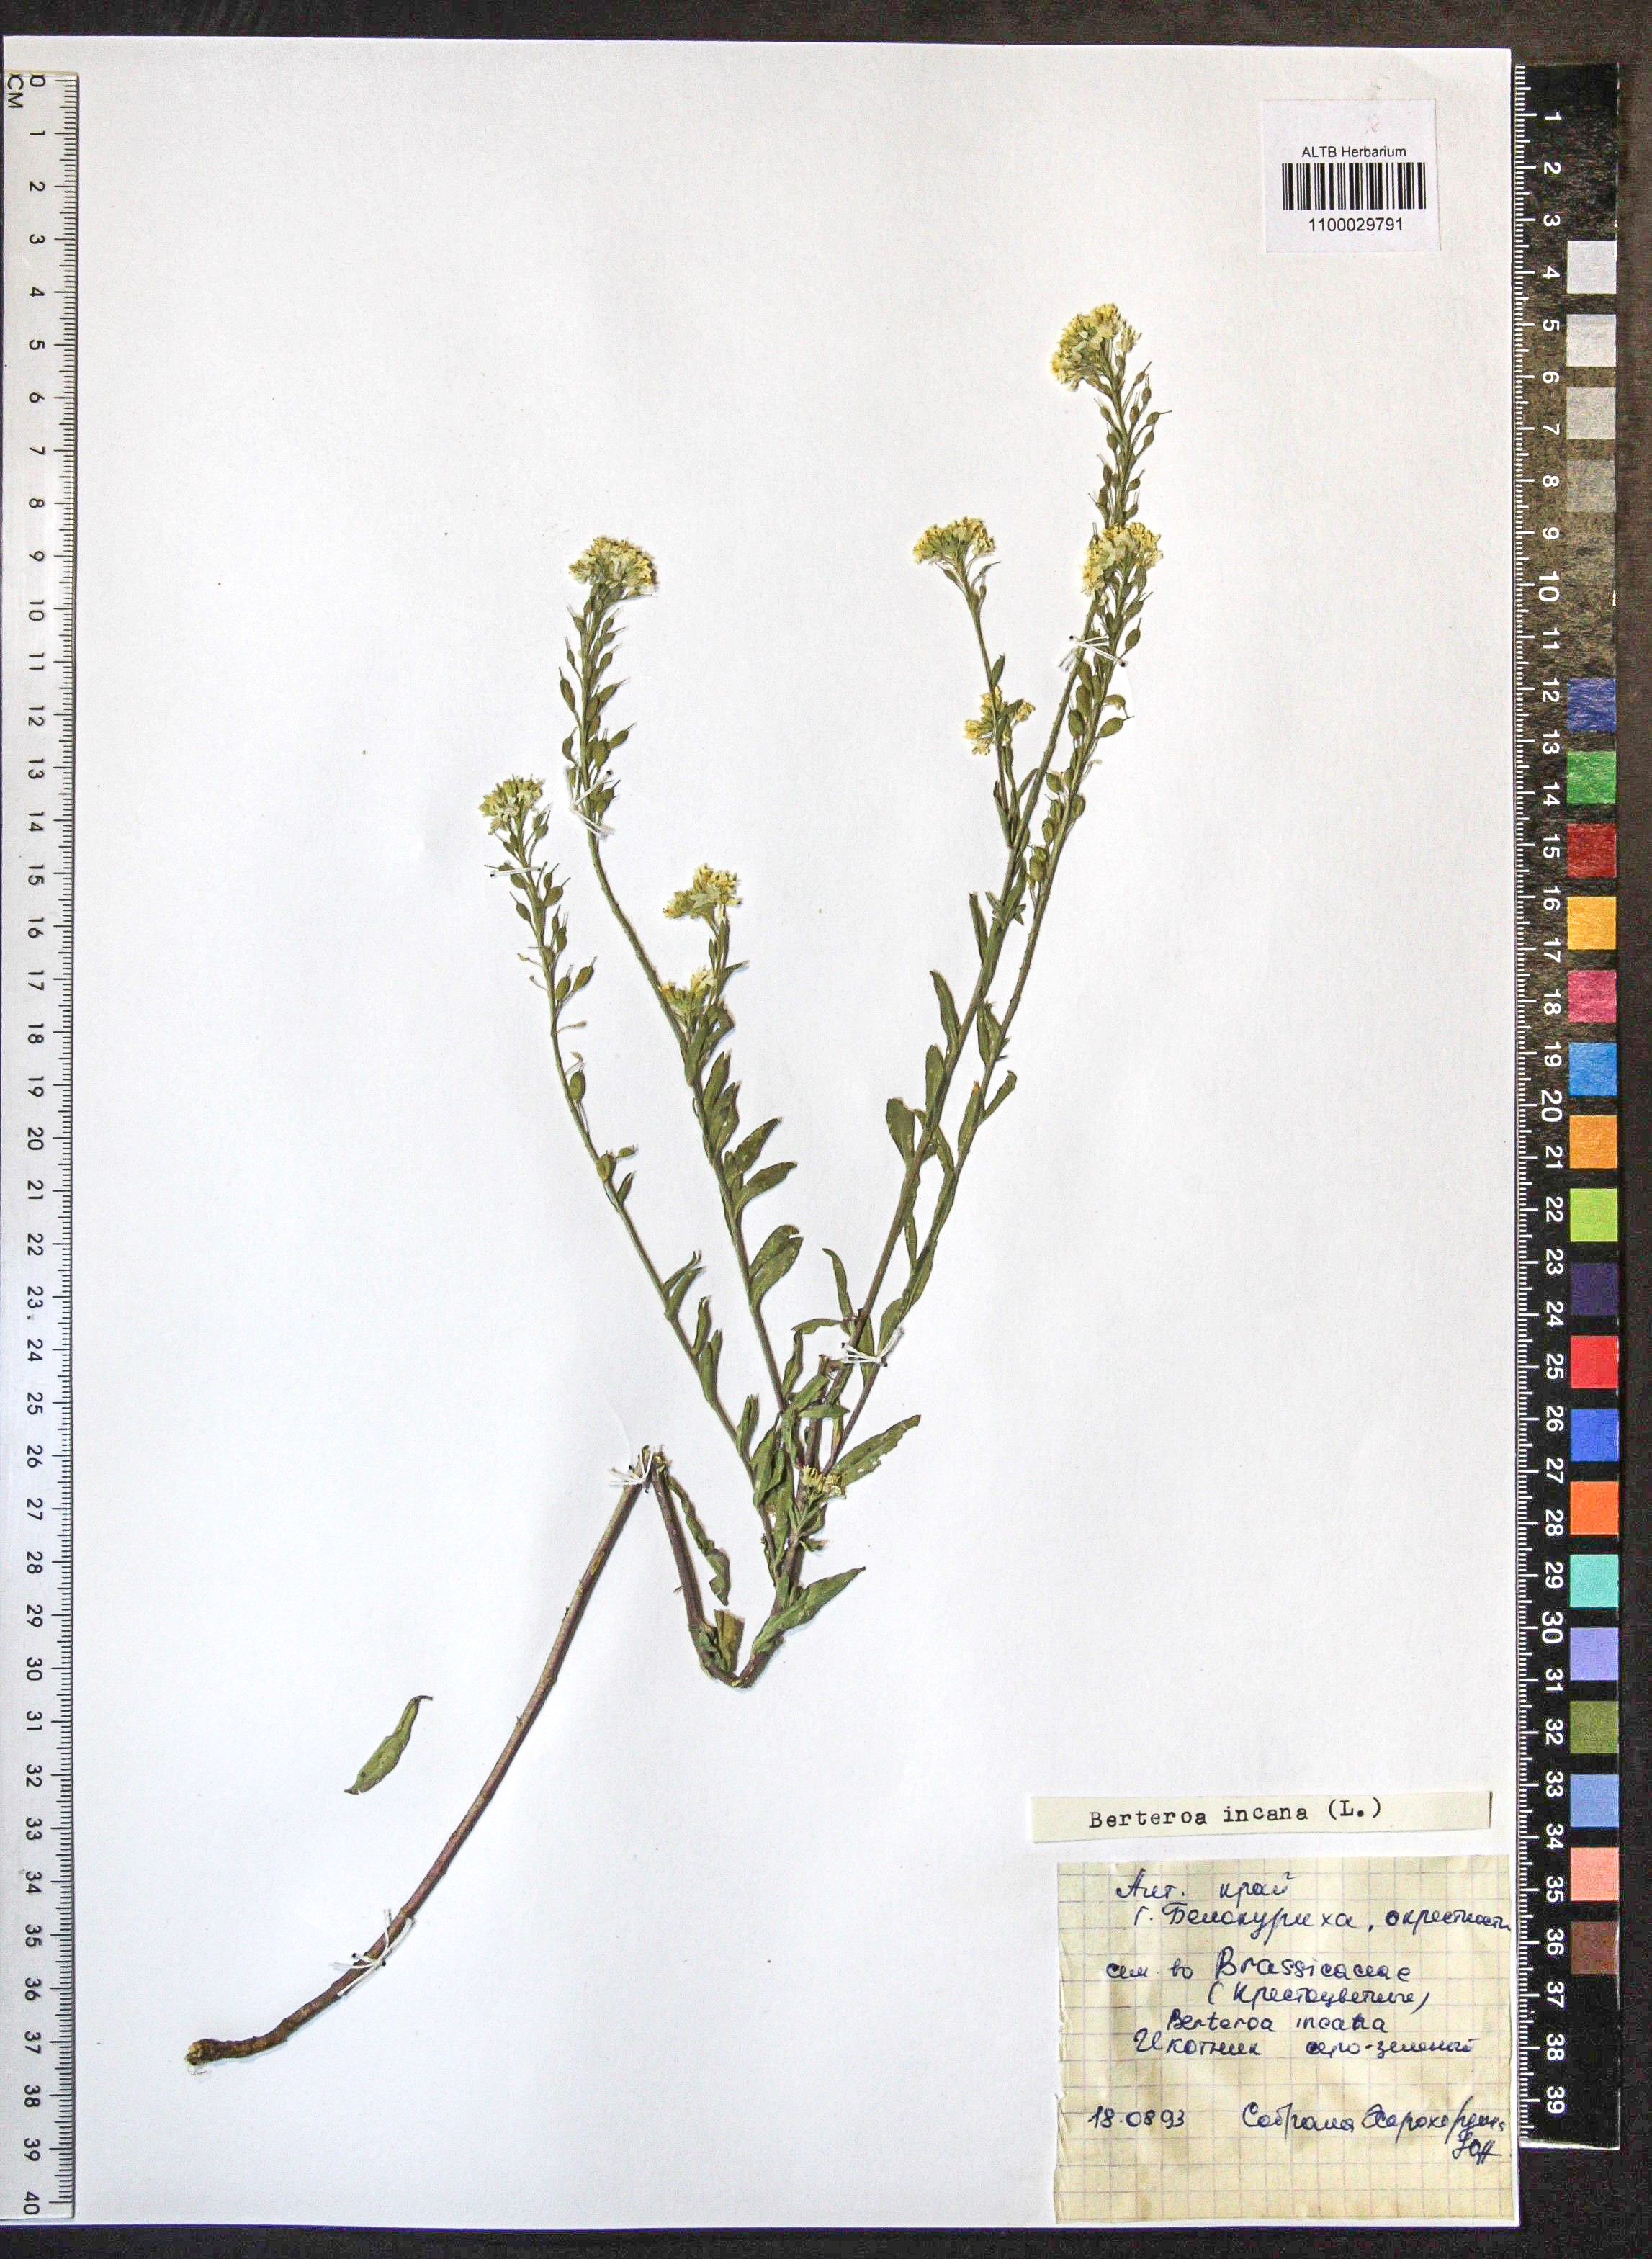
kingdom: Plantae
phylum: Tracheophyta
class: Magnoliopsida
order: Brassicales
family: Brassicaceae
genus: Berteroa
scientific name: Berteroa incana
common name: Hoary alison
